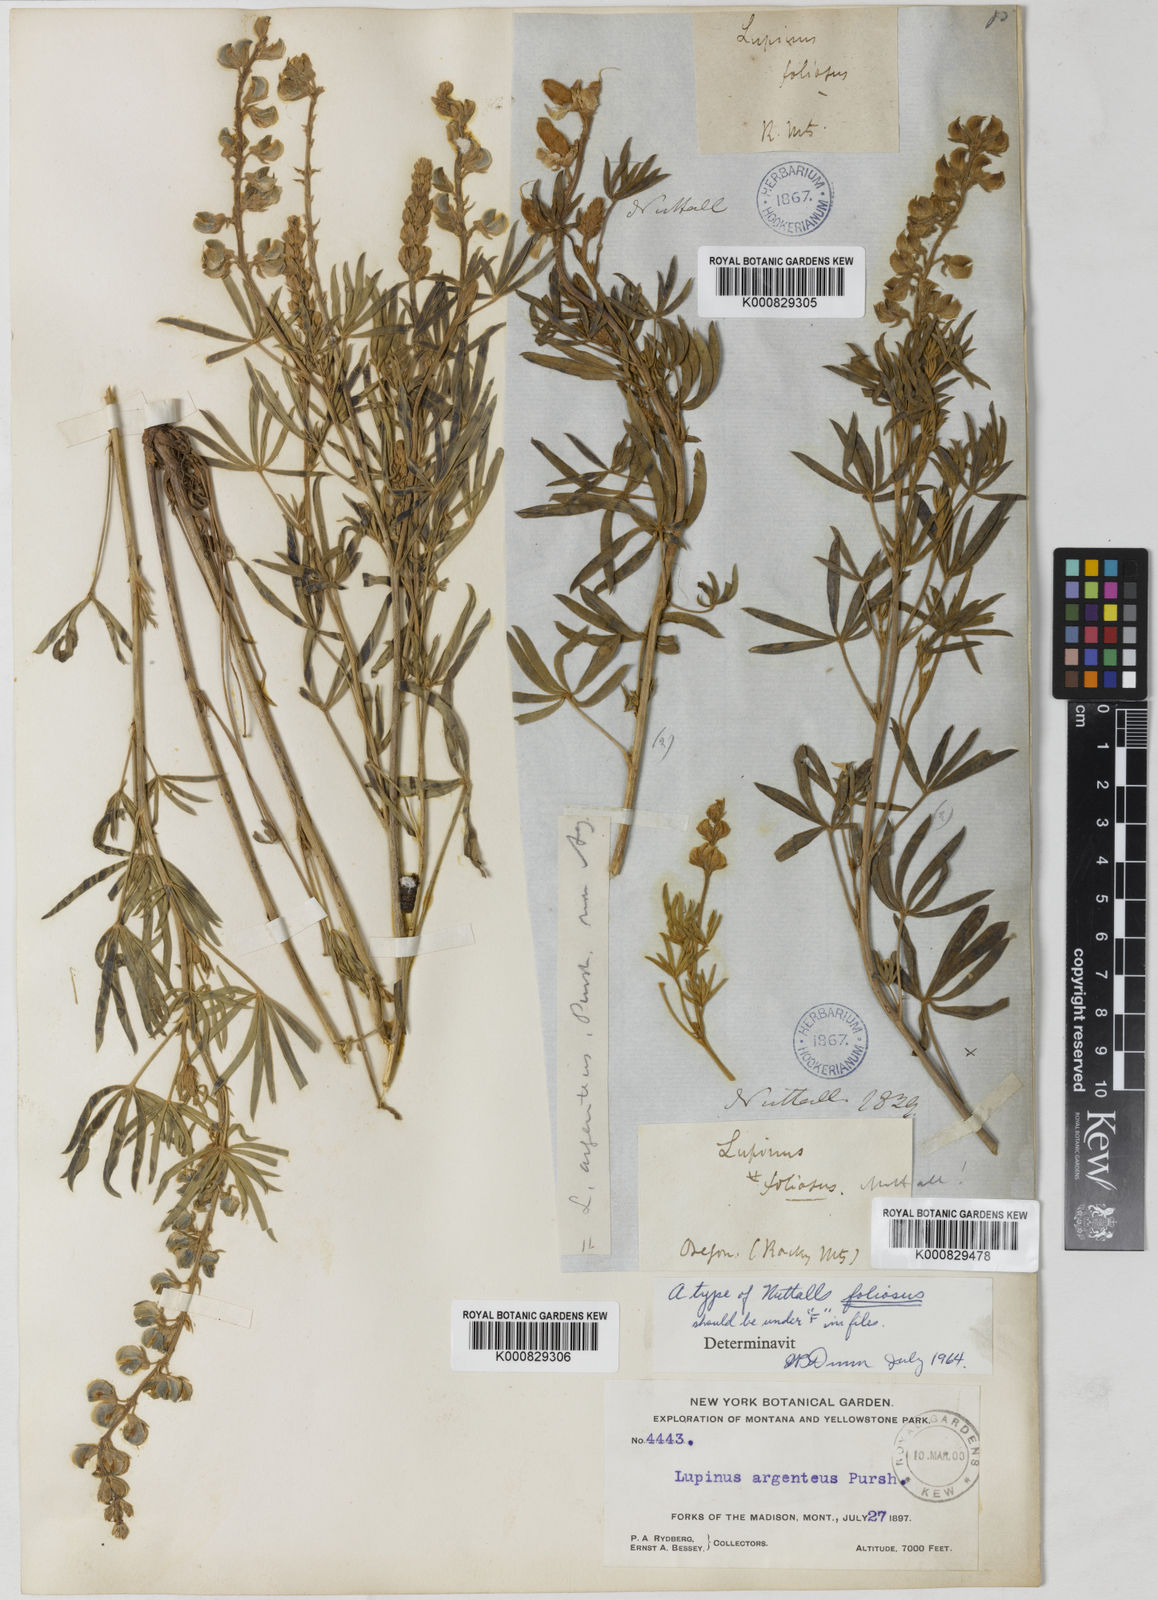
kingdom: Plantae
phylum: Tracheophyta
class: Magnoliopsida
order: Fabales
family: Fabaceae
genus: Lupinus
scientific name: Lupinus
